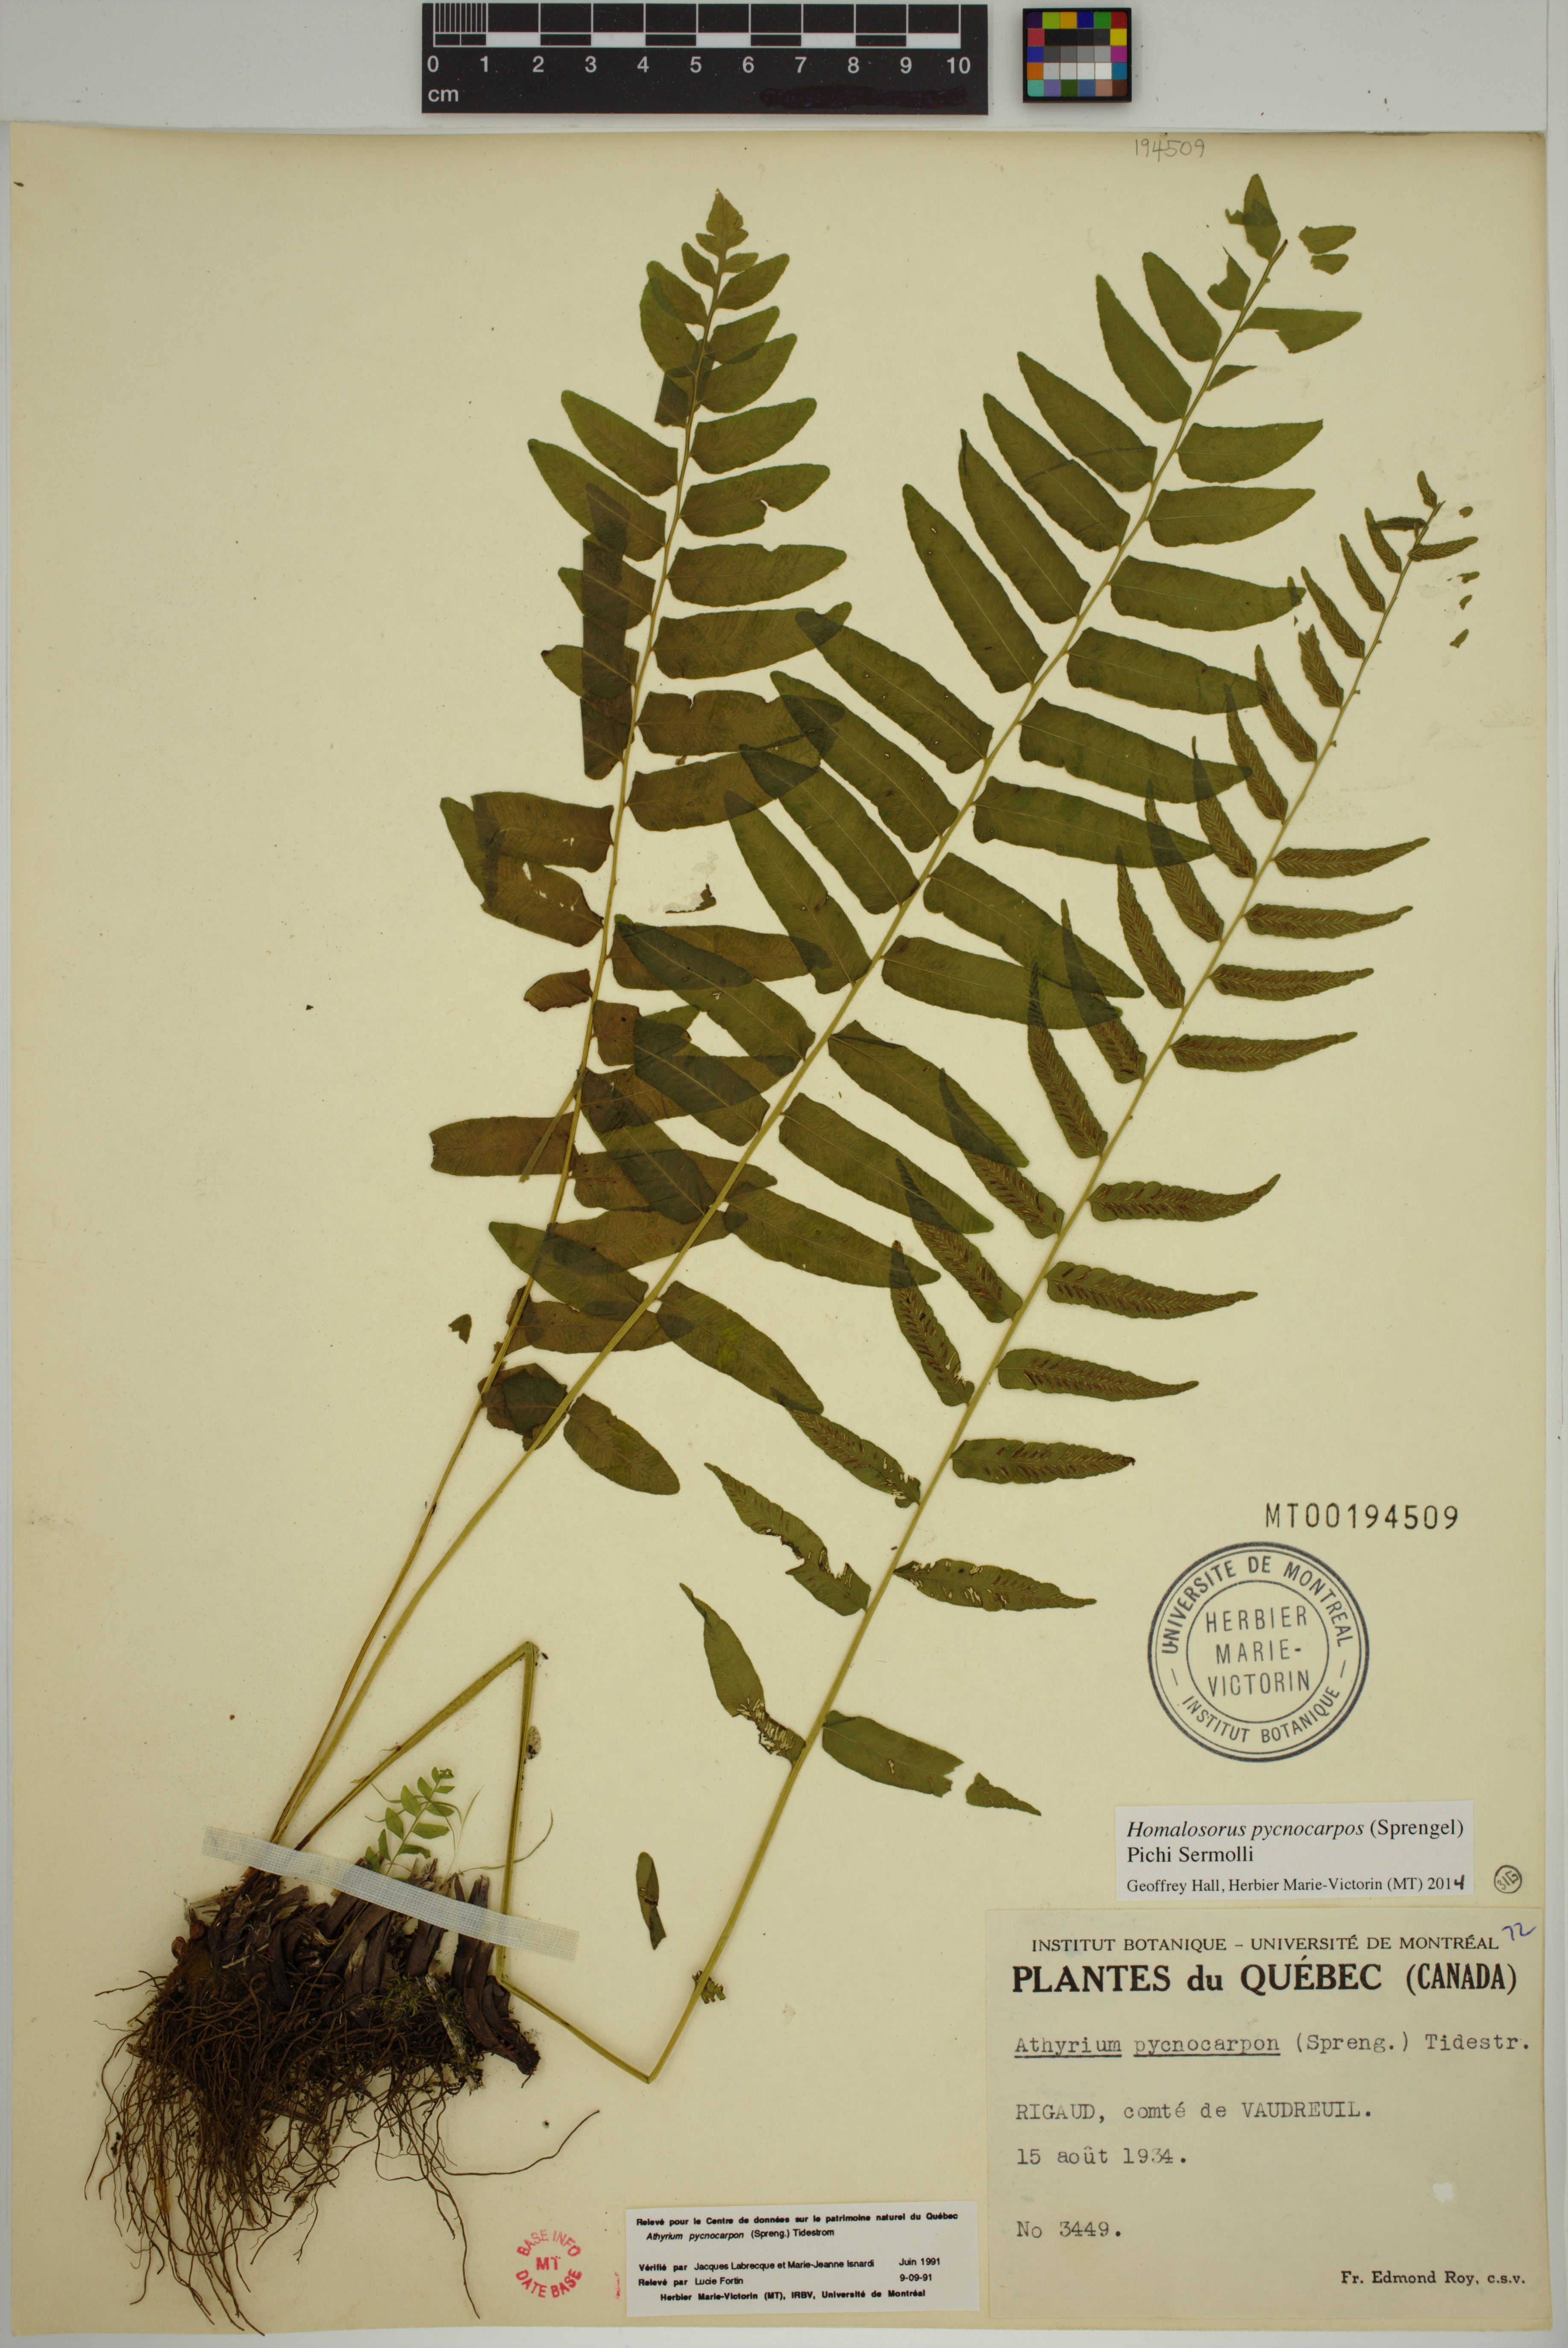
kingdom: Plantae
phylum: Tracheophyta
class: Polypodiopsida
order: Polypodiales
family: Diplaziopsidaceae
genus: Homalosorus
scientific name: Homalosorus pycnocarpos
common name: Glade fern
